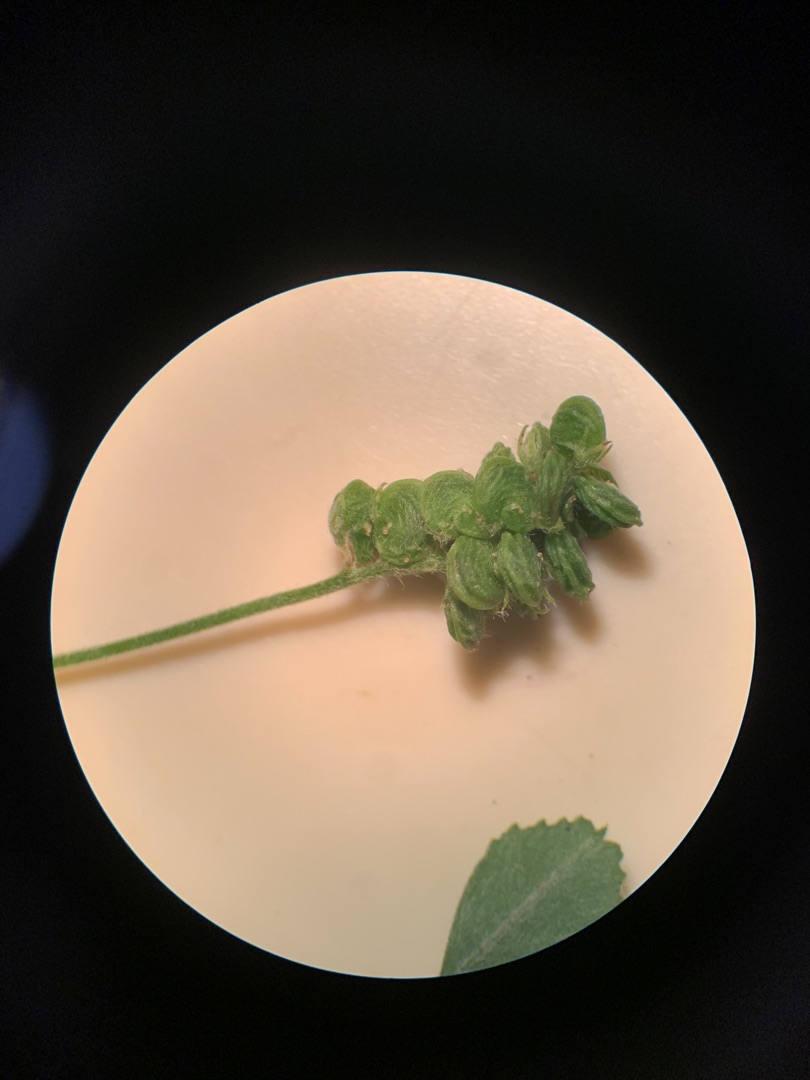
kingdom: Plantae
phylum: Tracheophyta
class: Magnoliopsida
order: Fabales
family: Fabaceae
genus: Medicago
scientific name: Medicago lupulina
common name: Humle-sneglebælg
